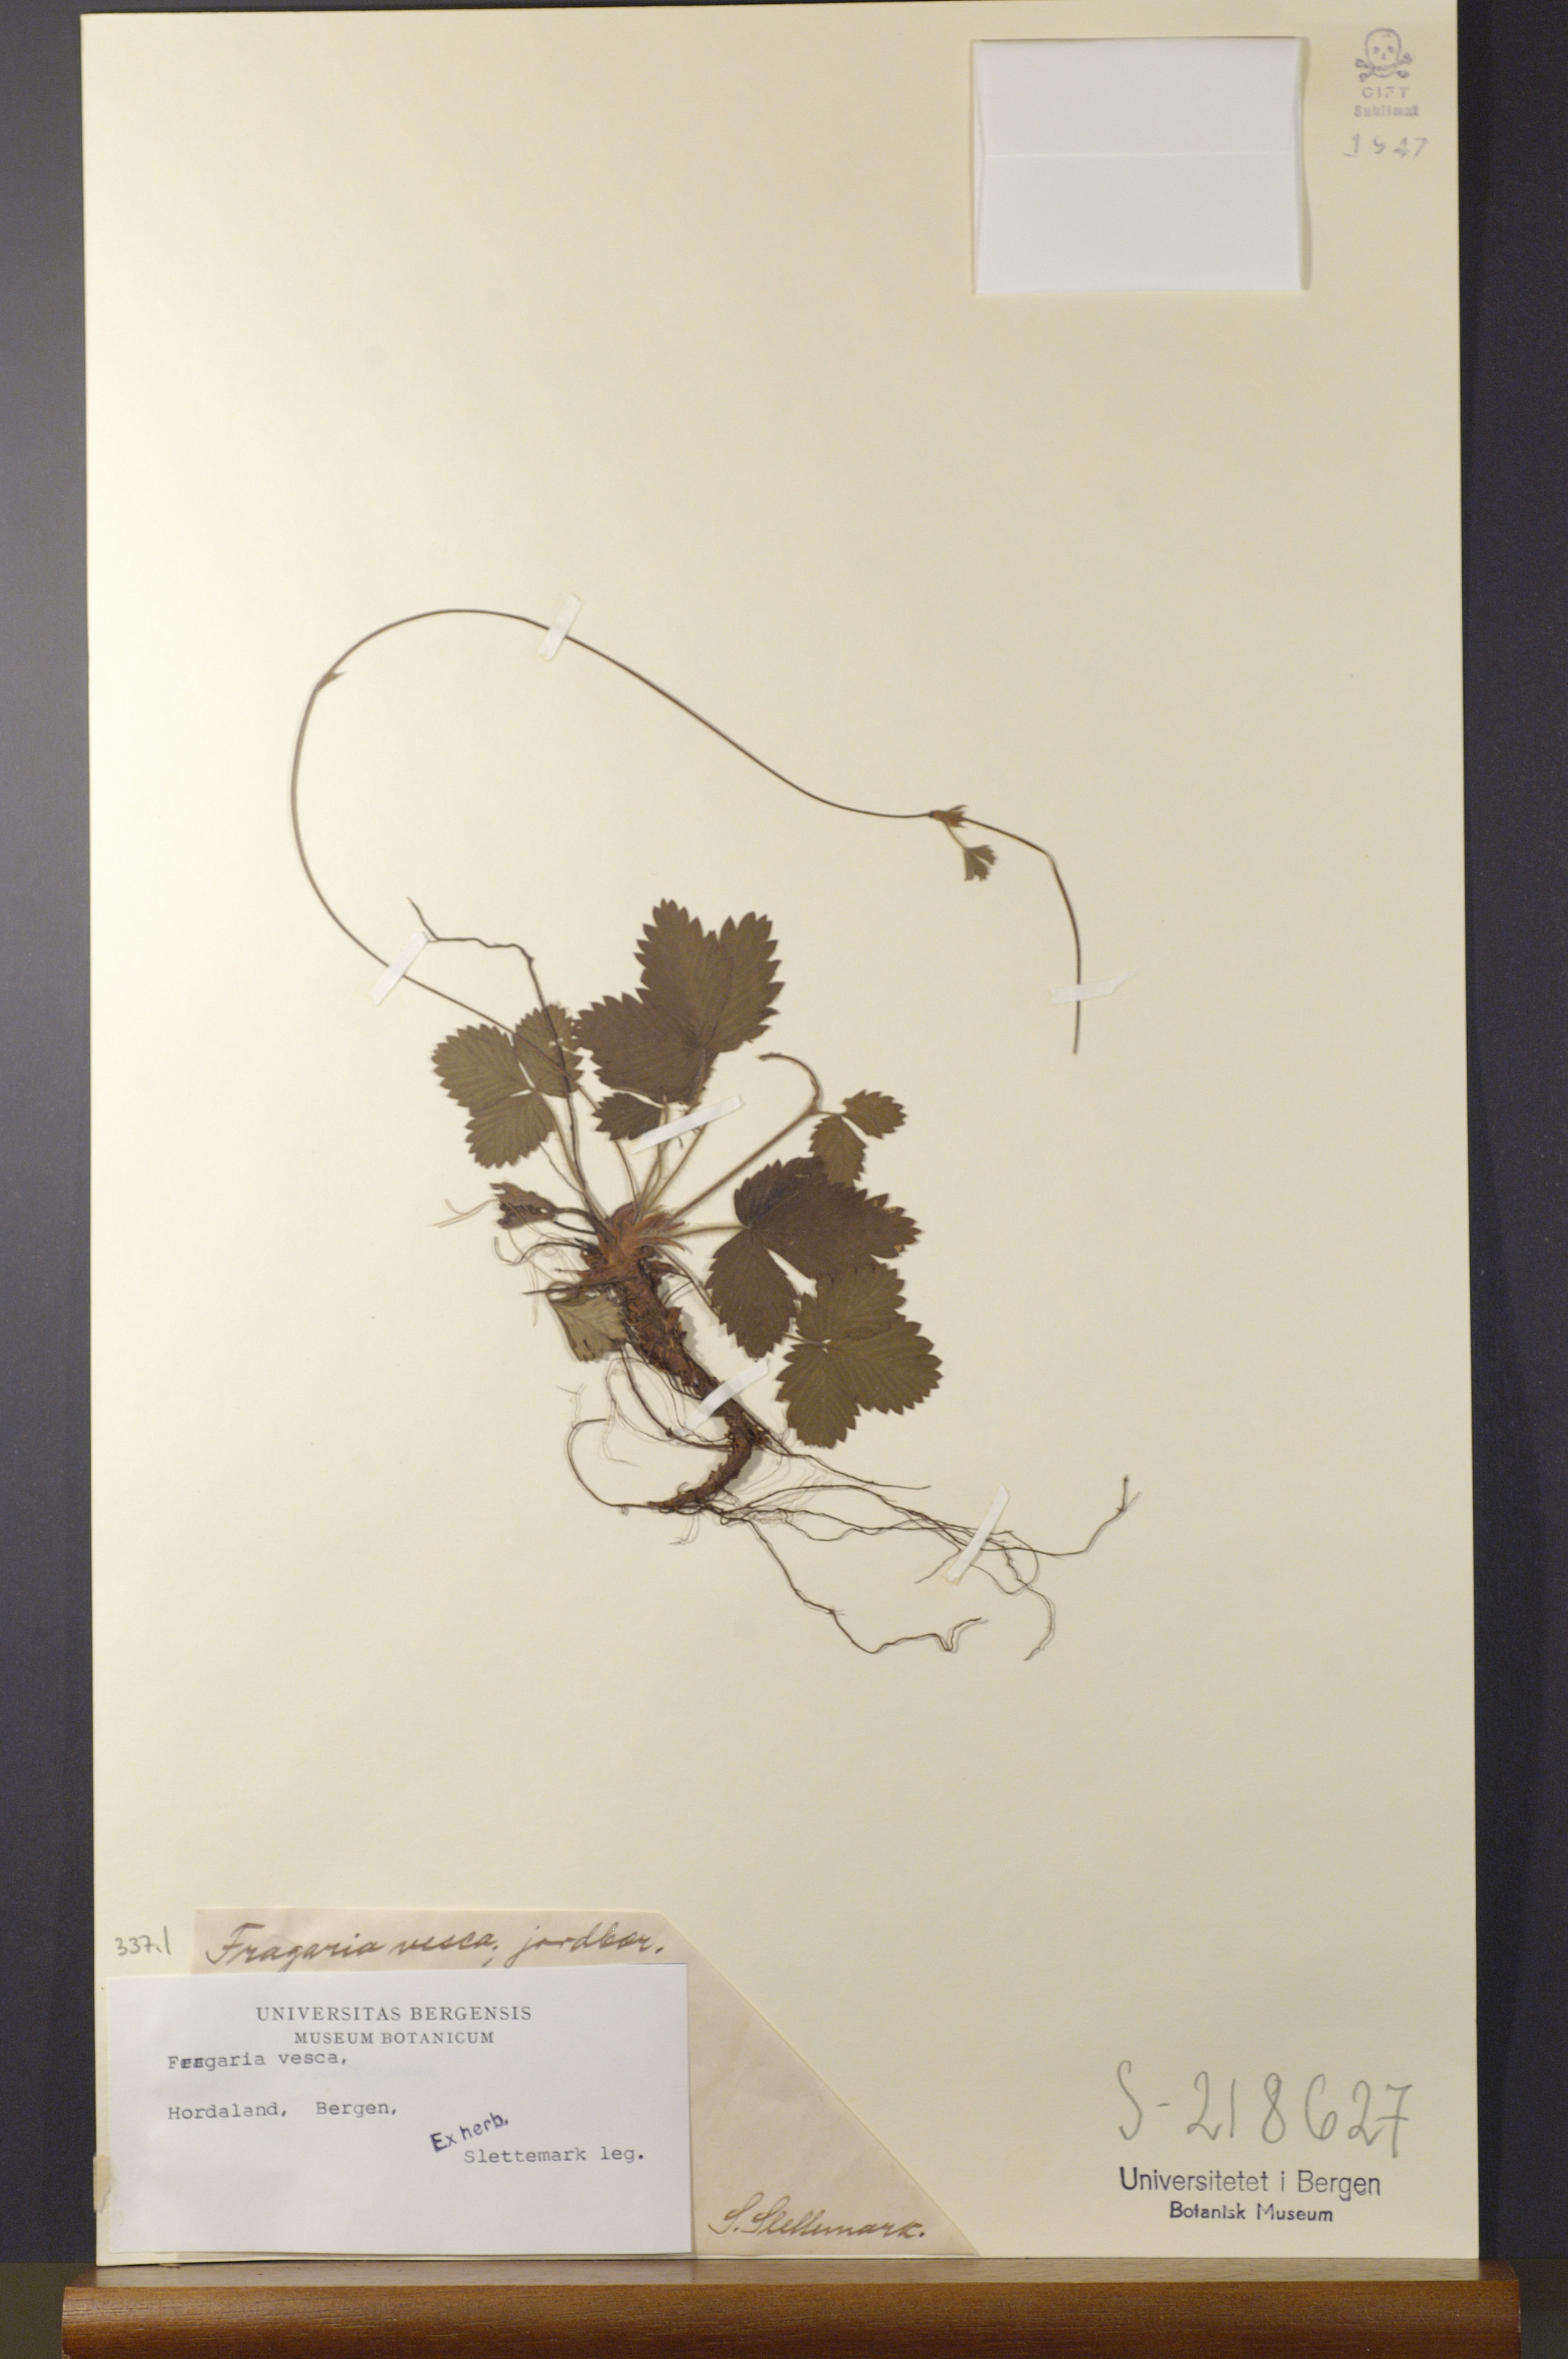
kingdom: Plantae
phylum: Tracheophyta
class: Magnoliopsida
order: Rosales
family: Rosaceae
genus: Fragaria
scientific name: Fragaria vesca
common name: Wild strawberry
